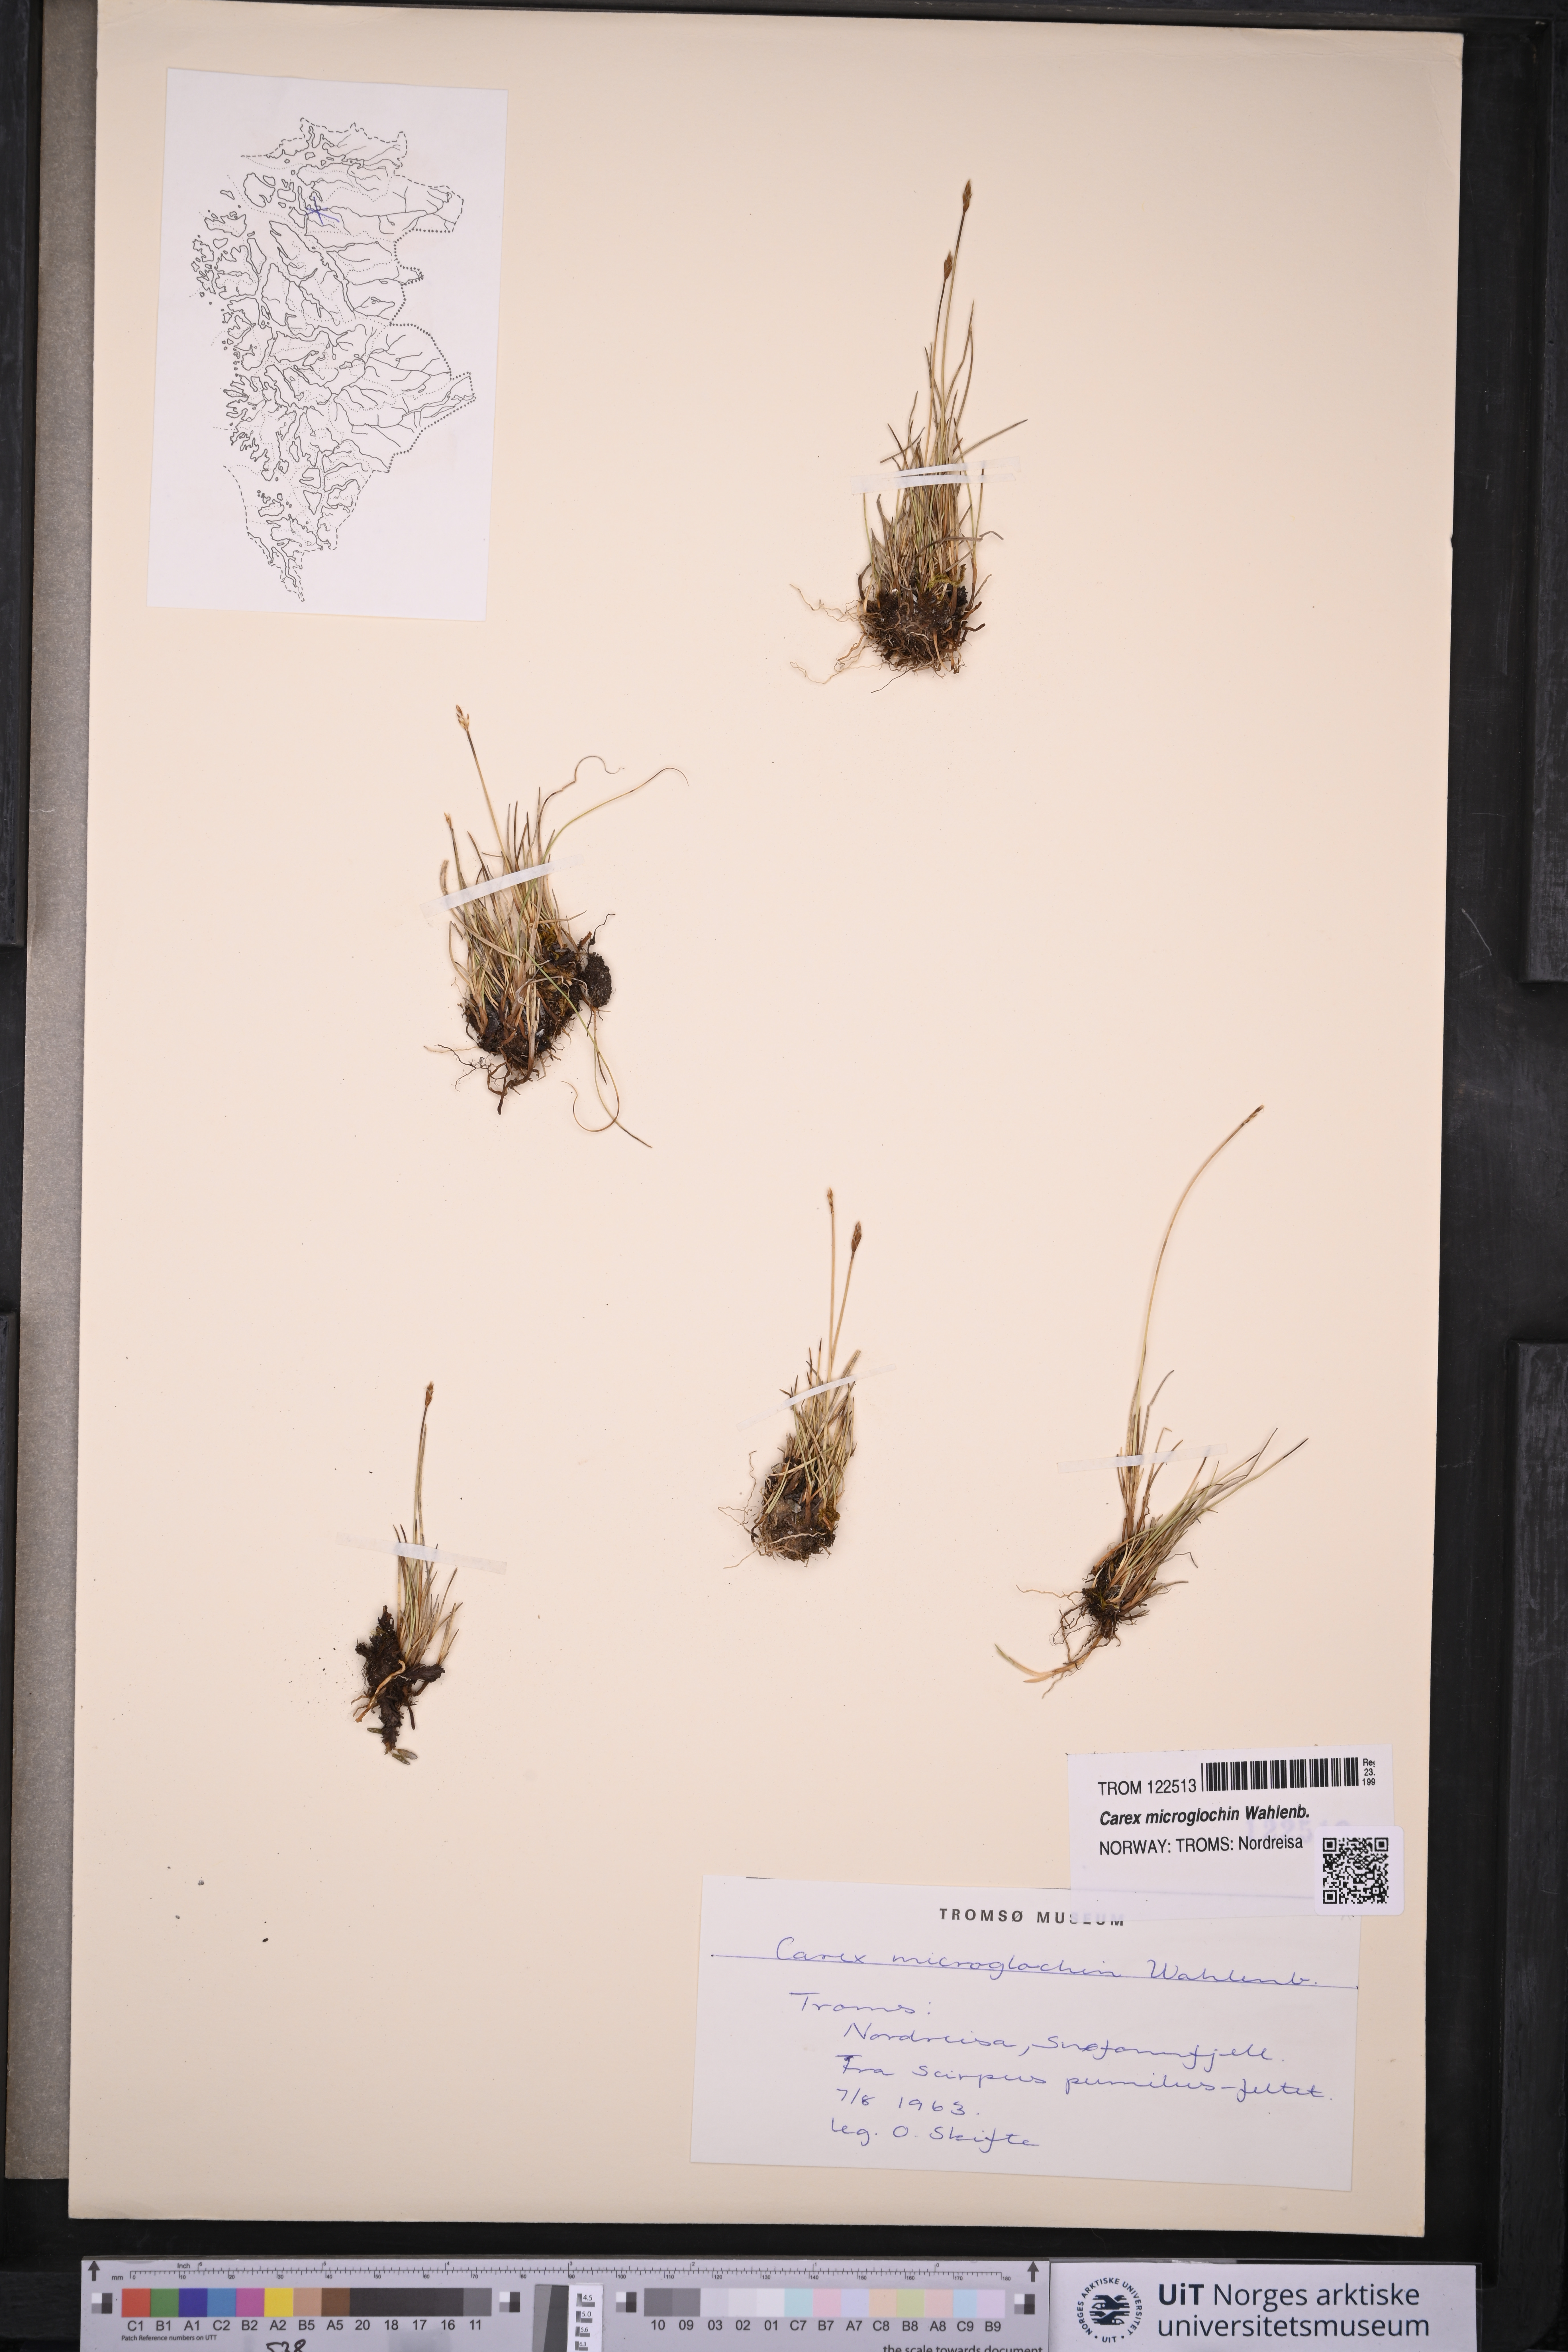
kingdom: Plantae
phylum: Tracheophyta
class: Liliopsida
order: Poales
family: Cyperaceae
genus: Carex
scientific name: Carex microglochin
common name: Bristle sedge
